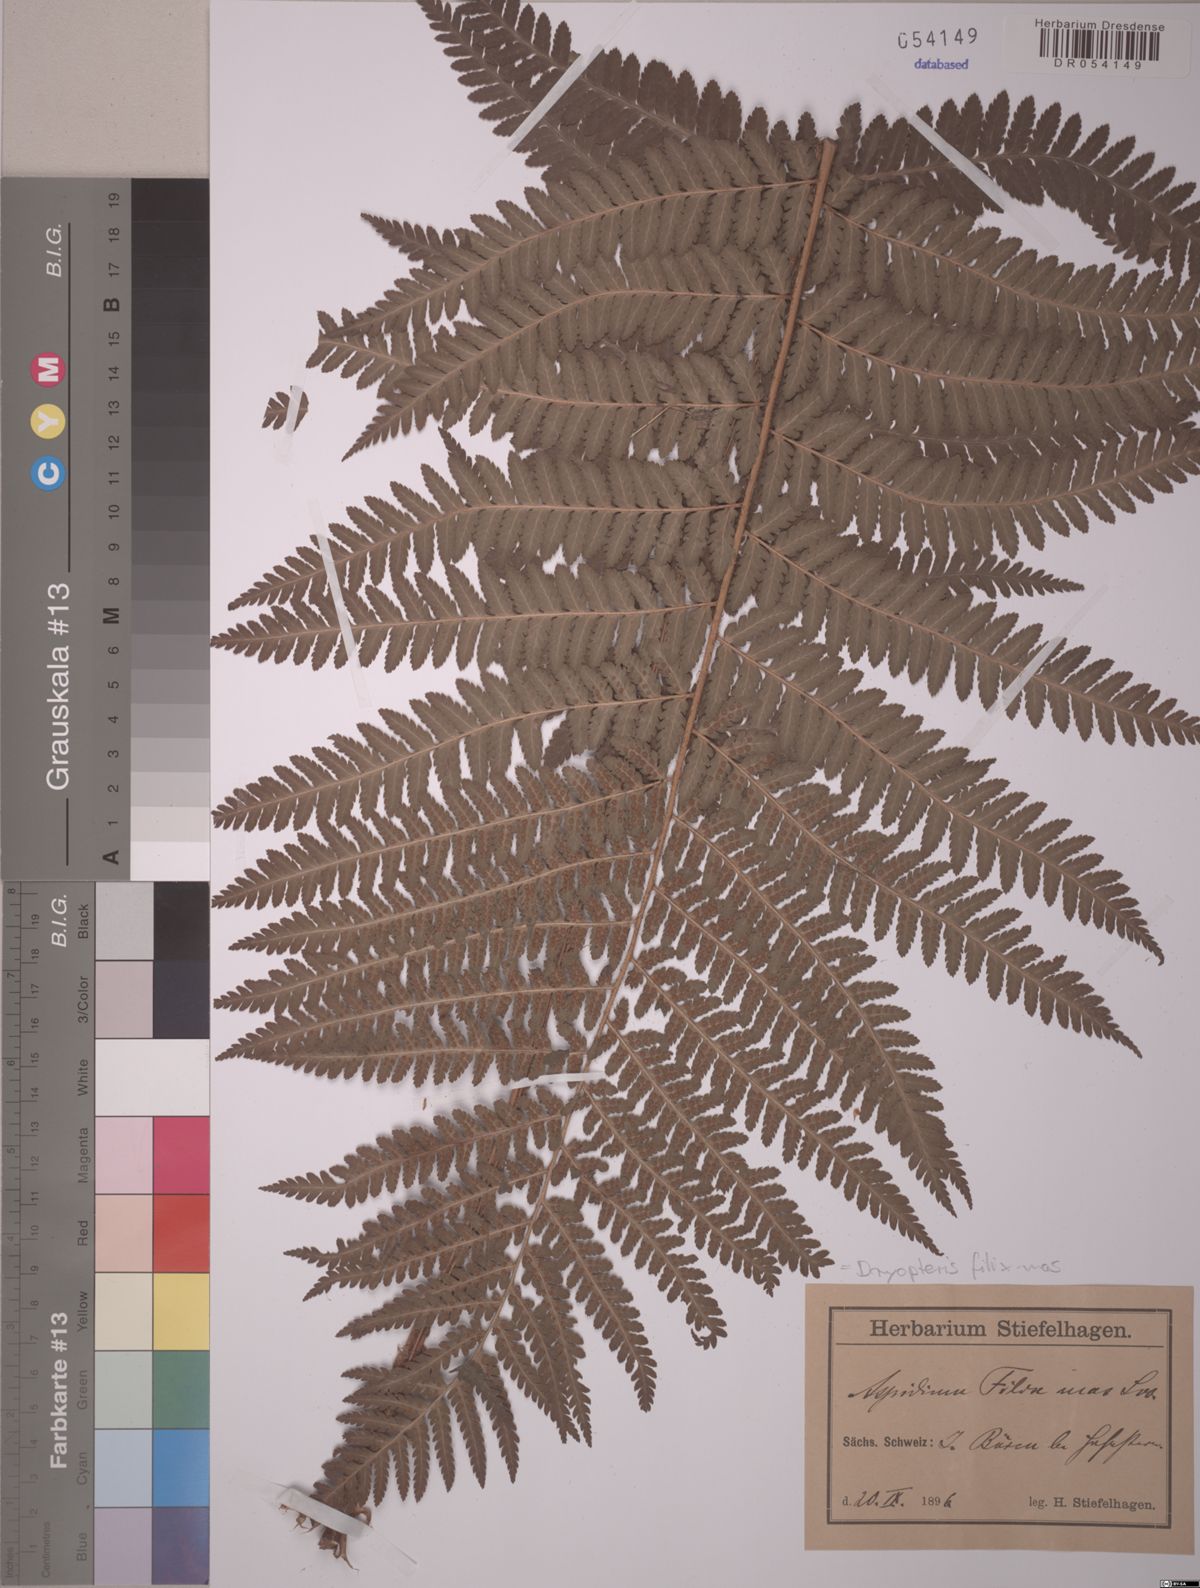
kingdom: Plantae
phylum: Tracheophyta
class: Polypodiopsida
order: Polypodiales
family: Dryopteridaceae
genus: Dryopteris
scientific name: Dryopteris filix-mas
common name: Male fern
